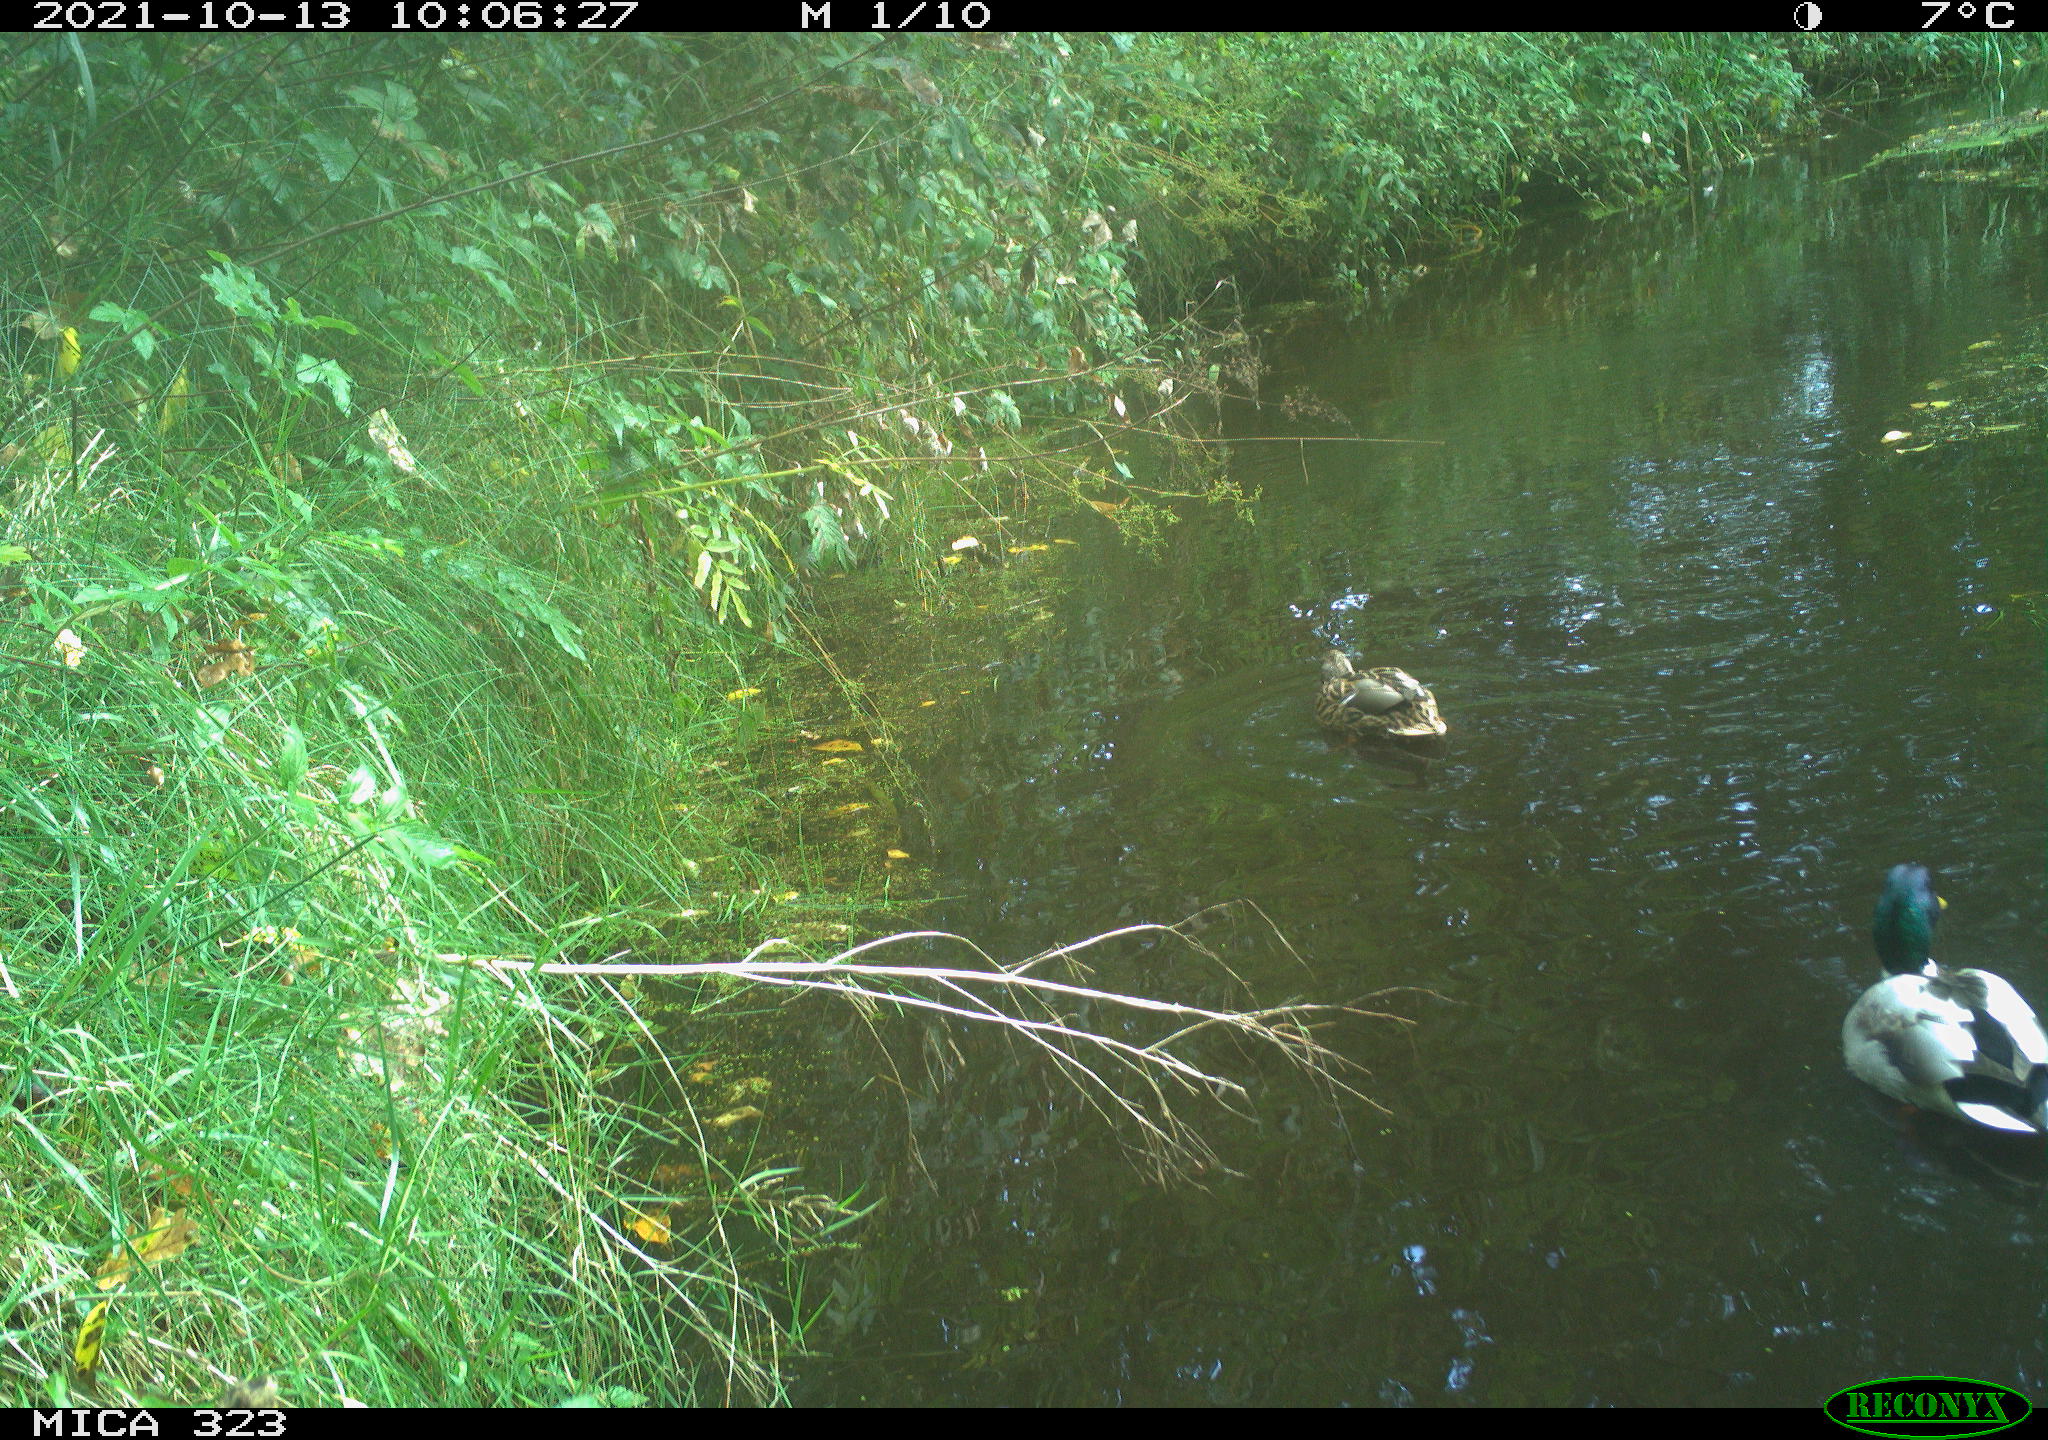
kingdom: Animalia
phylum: Chordata
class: Aves
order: Anseriformes
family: Anatidae
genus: Anas
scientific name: Anas platyrhynchos
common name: Mallard
